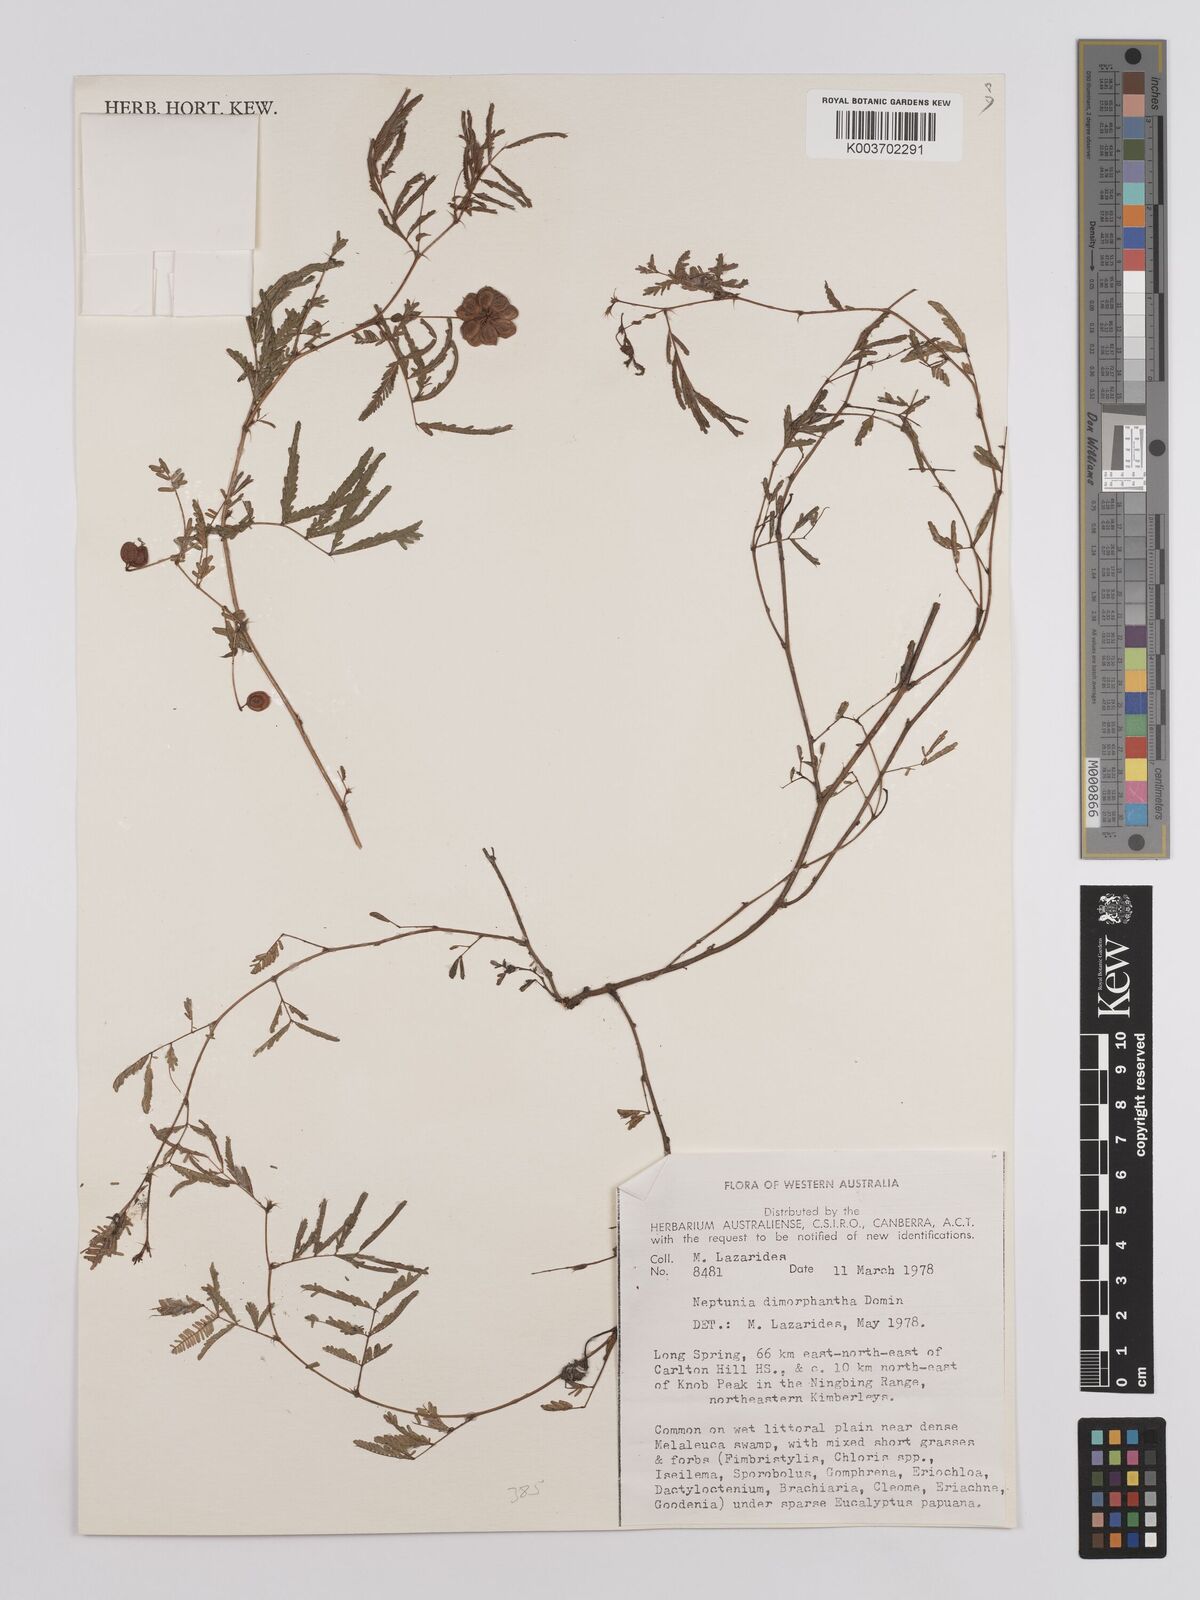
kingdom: Plantae
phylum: Tracheophyta
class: Magnoliopsida
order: Fabales
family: Fabaceae
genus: Neptunia
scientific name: Neptunia dimorphantha
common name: Sensitive-plant
